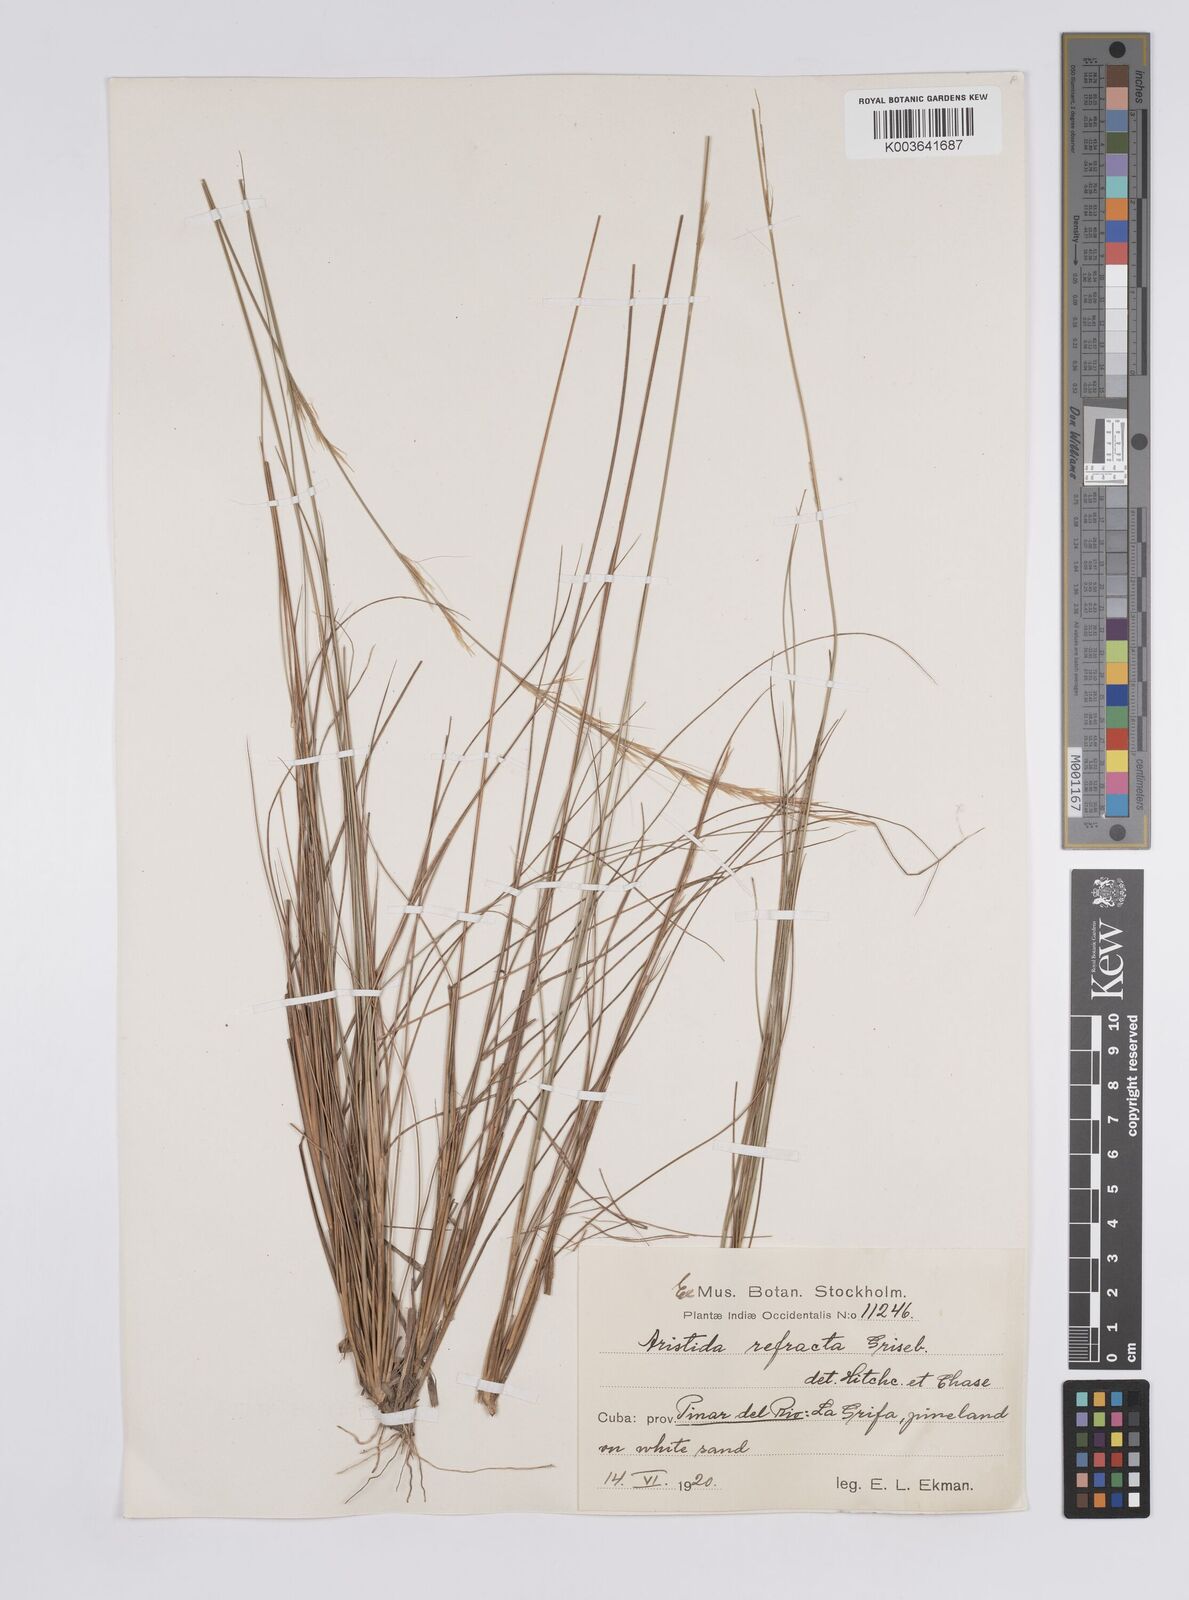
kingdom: Plantae
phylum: Tracheophyta
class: Liliopsida
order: Poales
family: Poaceae
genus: Aristida
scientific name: Aristida refracta
